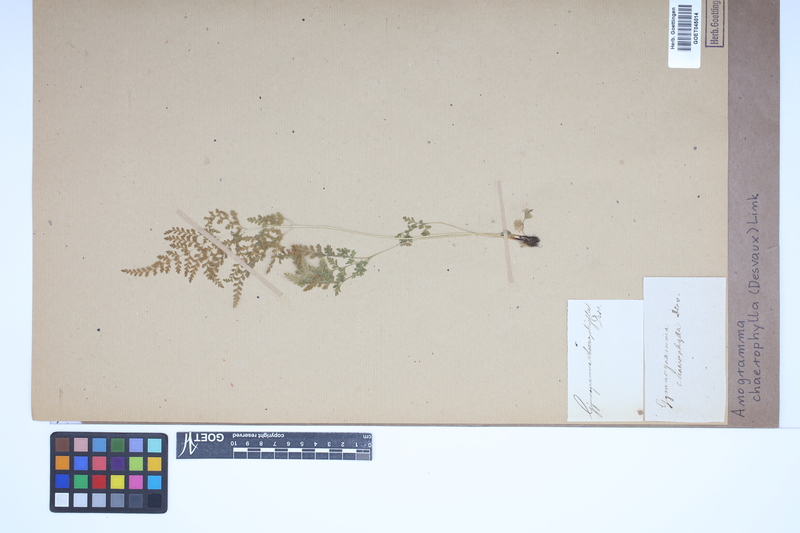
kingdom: Plantae
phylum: Tracheophyta
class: Polypodiopsida
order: Polypodiales
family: Pteridaceae
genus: Gastoniella
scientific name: Gastoniella chaerophylla
